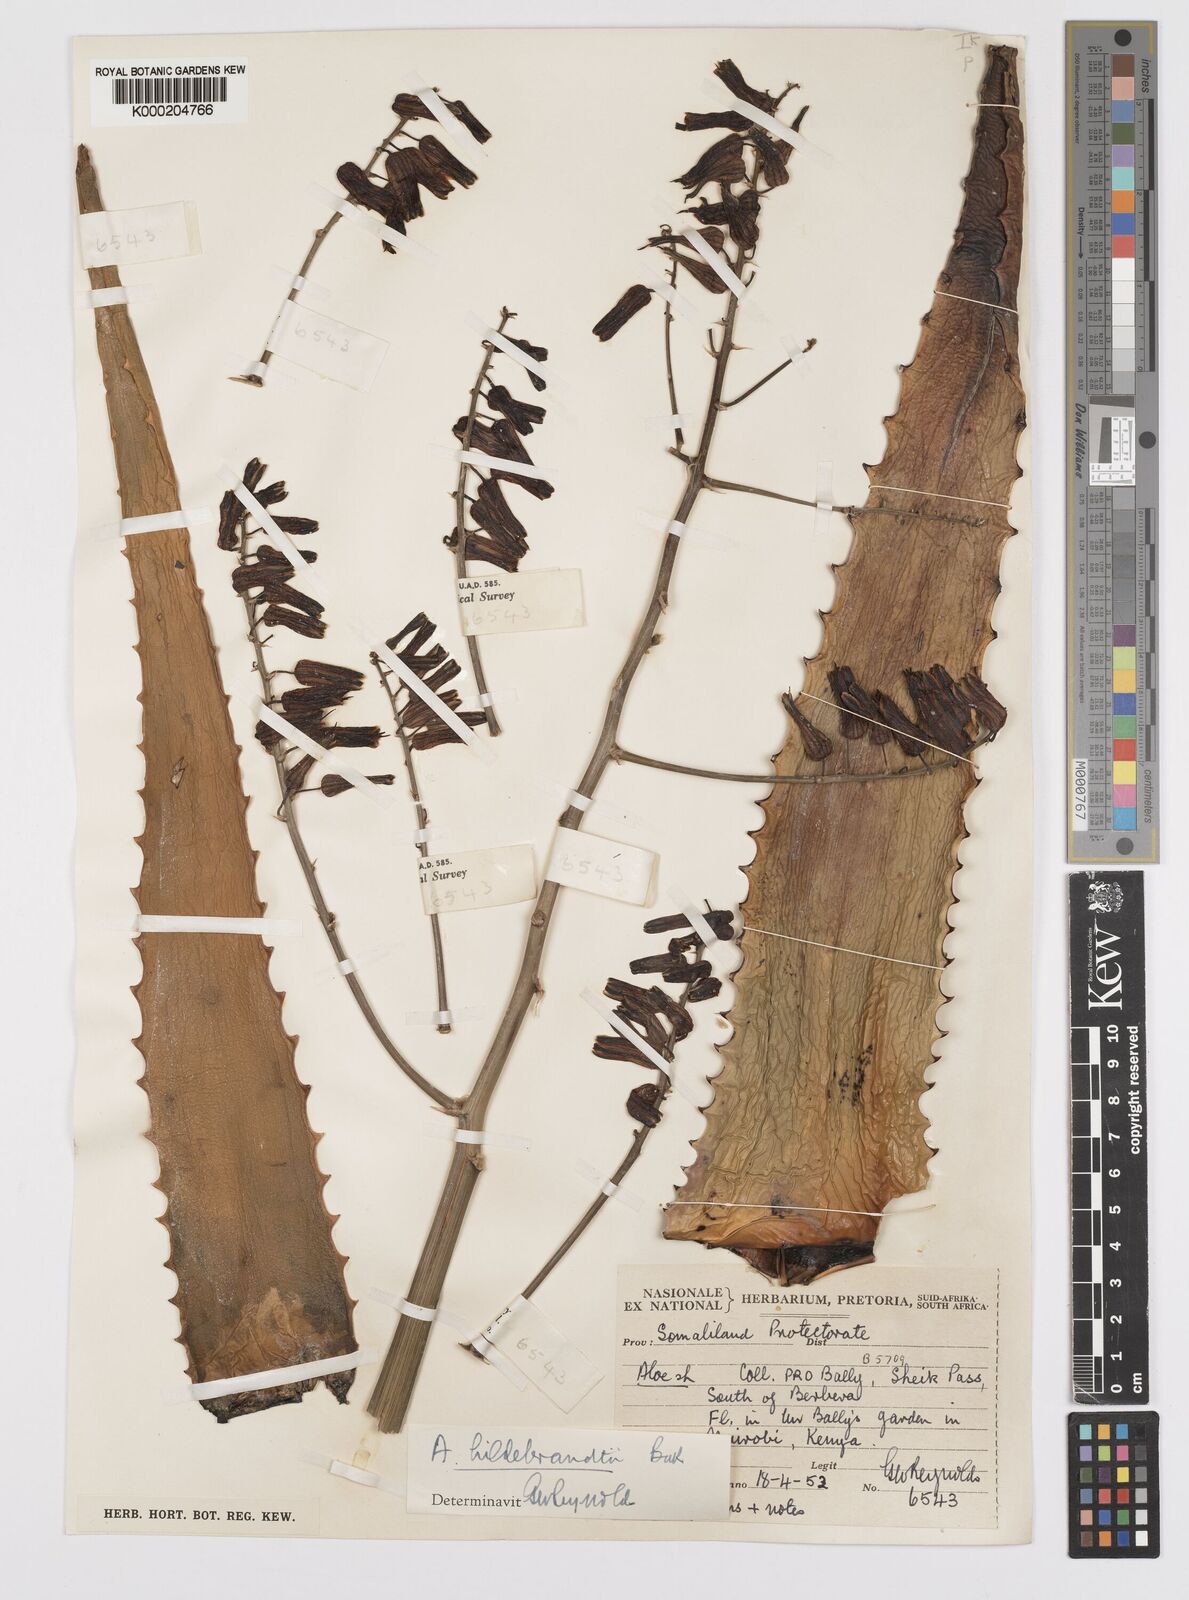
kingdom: Plantae
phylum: Tracheophyta
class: Liliopsida
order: Asparagales
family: Asphodelaceae
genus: Aloe
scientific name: Aloe hildebrandtii
